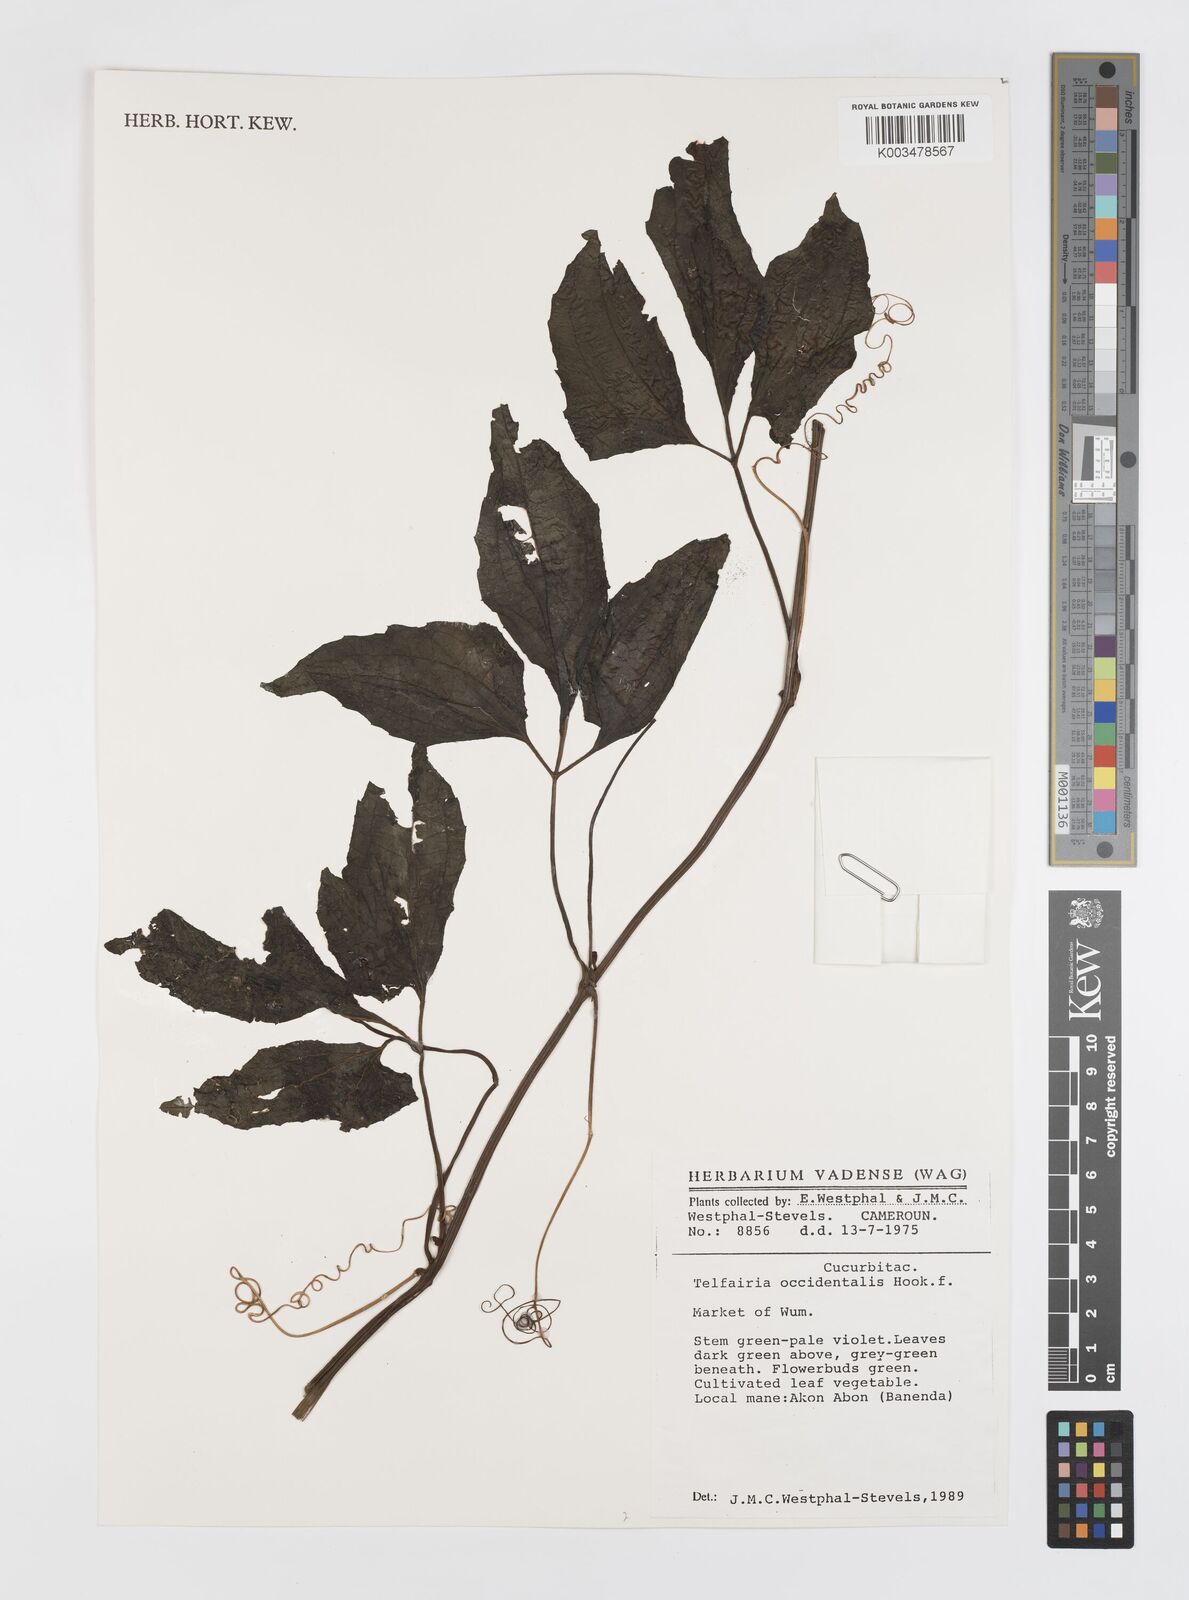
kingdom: Plantae
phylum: Tracheophyta
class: Magnoliopsida
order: Cucurbitales
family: Cucurbitaceae
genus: Telfairia
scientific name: Telfairia occidentalis
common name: Oysternut
